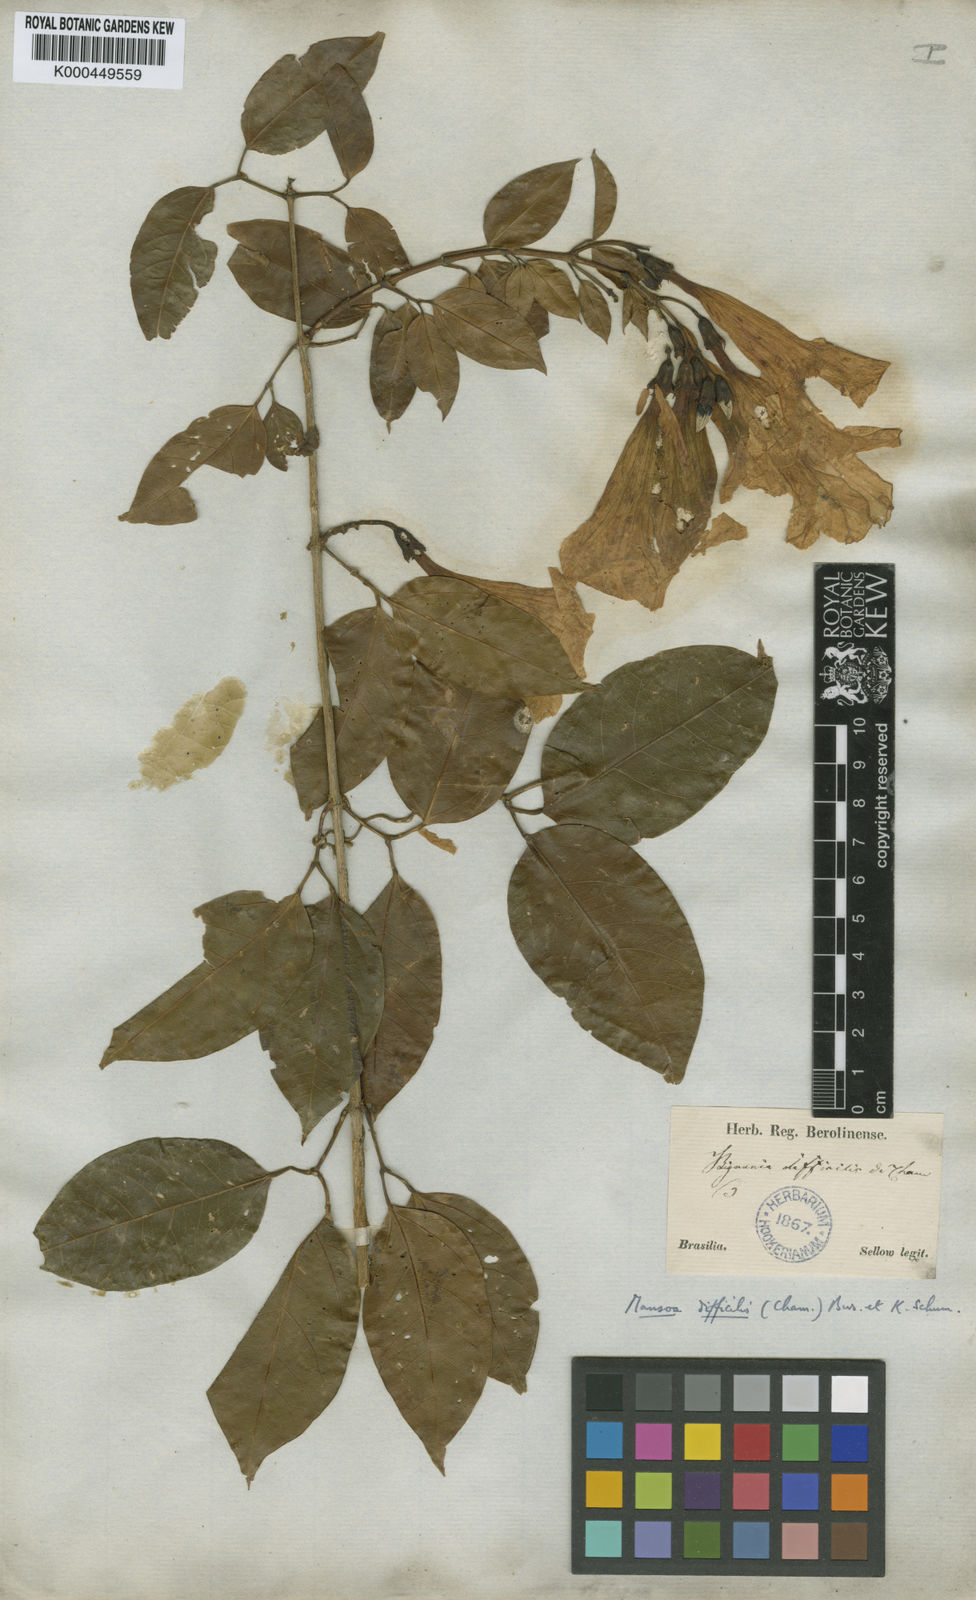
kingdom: Plantae
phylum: Tracheophyta
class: Magnoliopsida
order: Lamiales
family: Bignoniaceae
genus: Mansoa
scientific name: Mansoa difficilis
